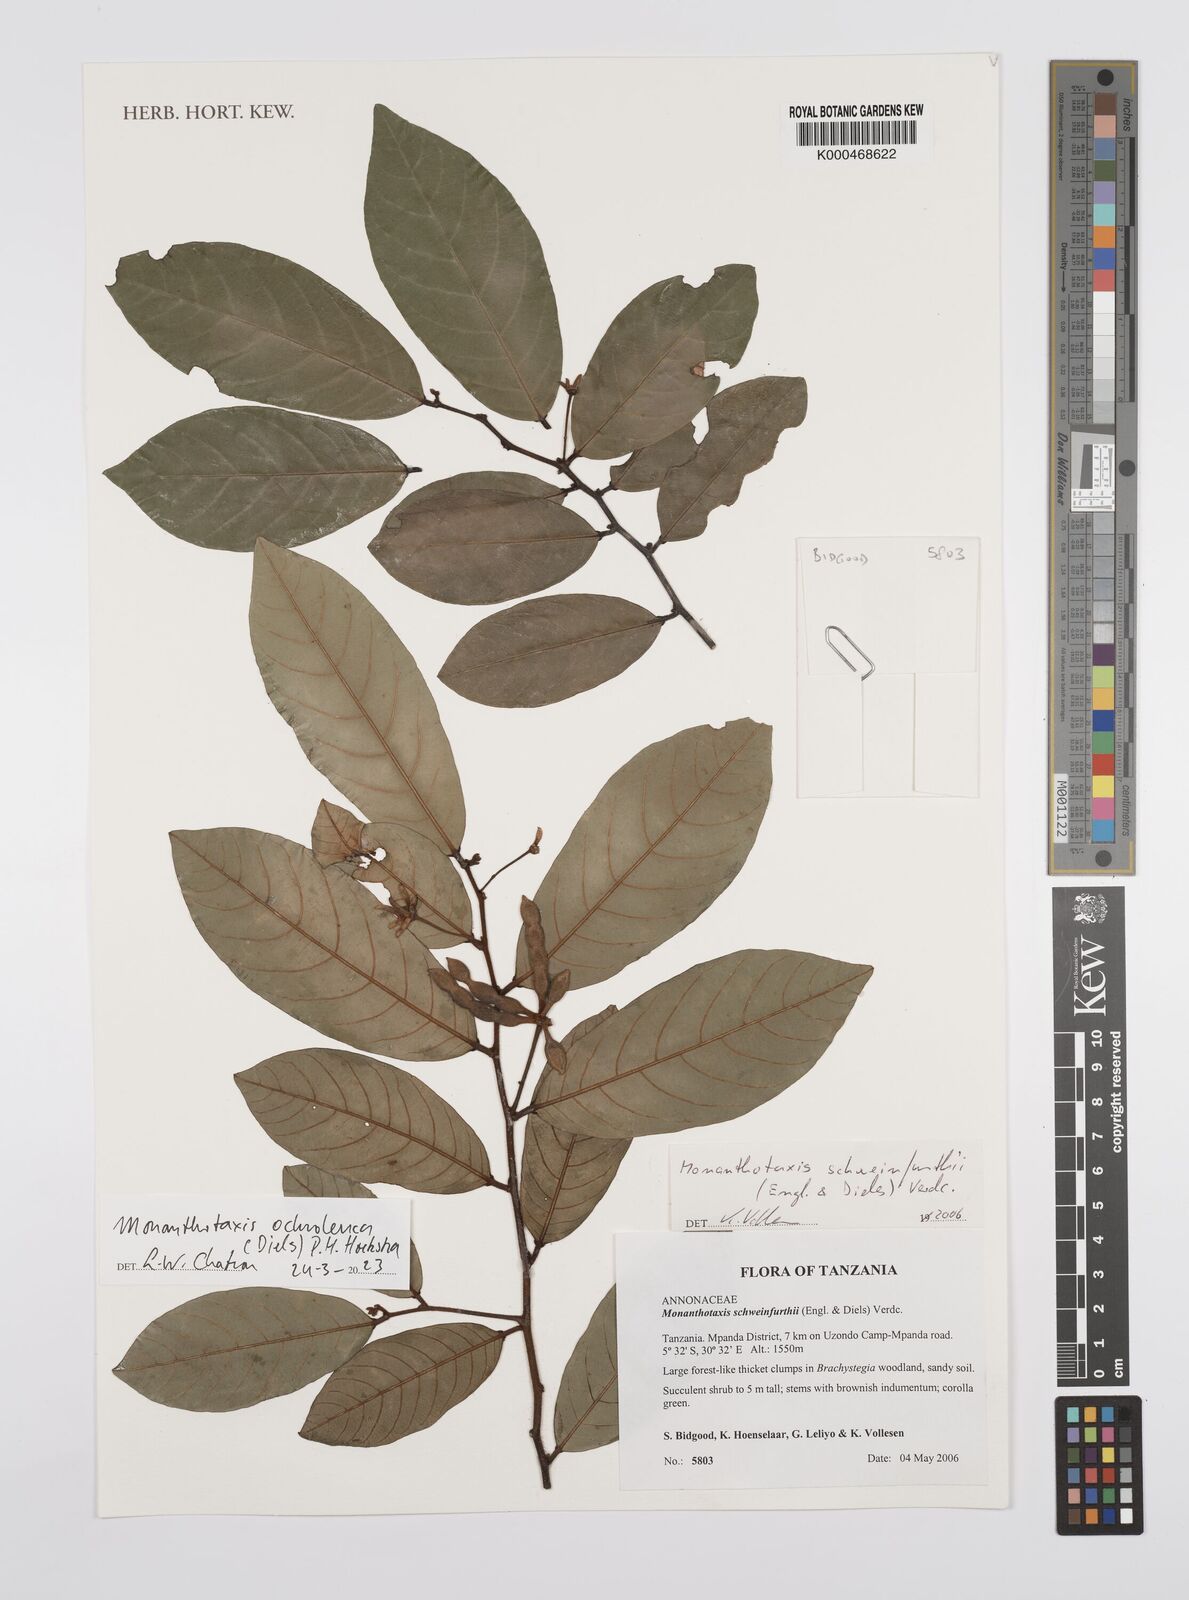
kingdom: Plantae
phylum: Tracheophyta
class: Magnoliopsida
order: Magnoliales
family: Annonaceae
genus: Monanthotaxis
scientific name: Monanthotaxis schweinfurthii
